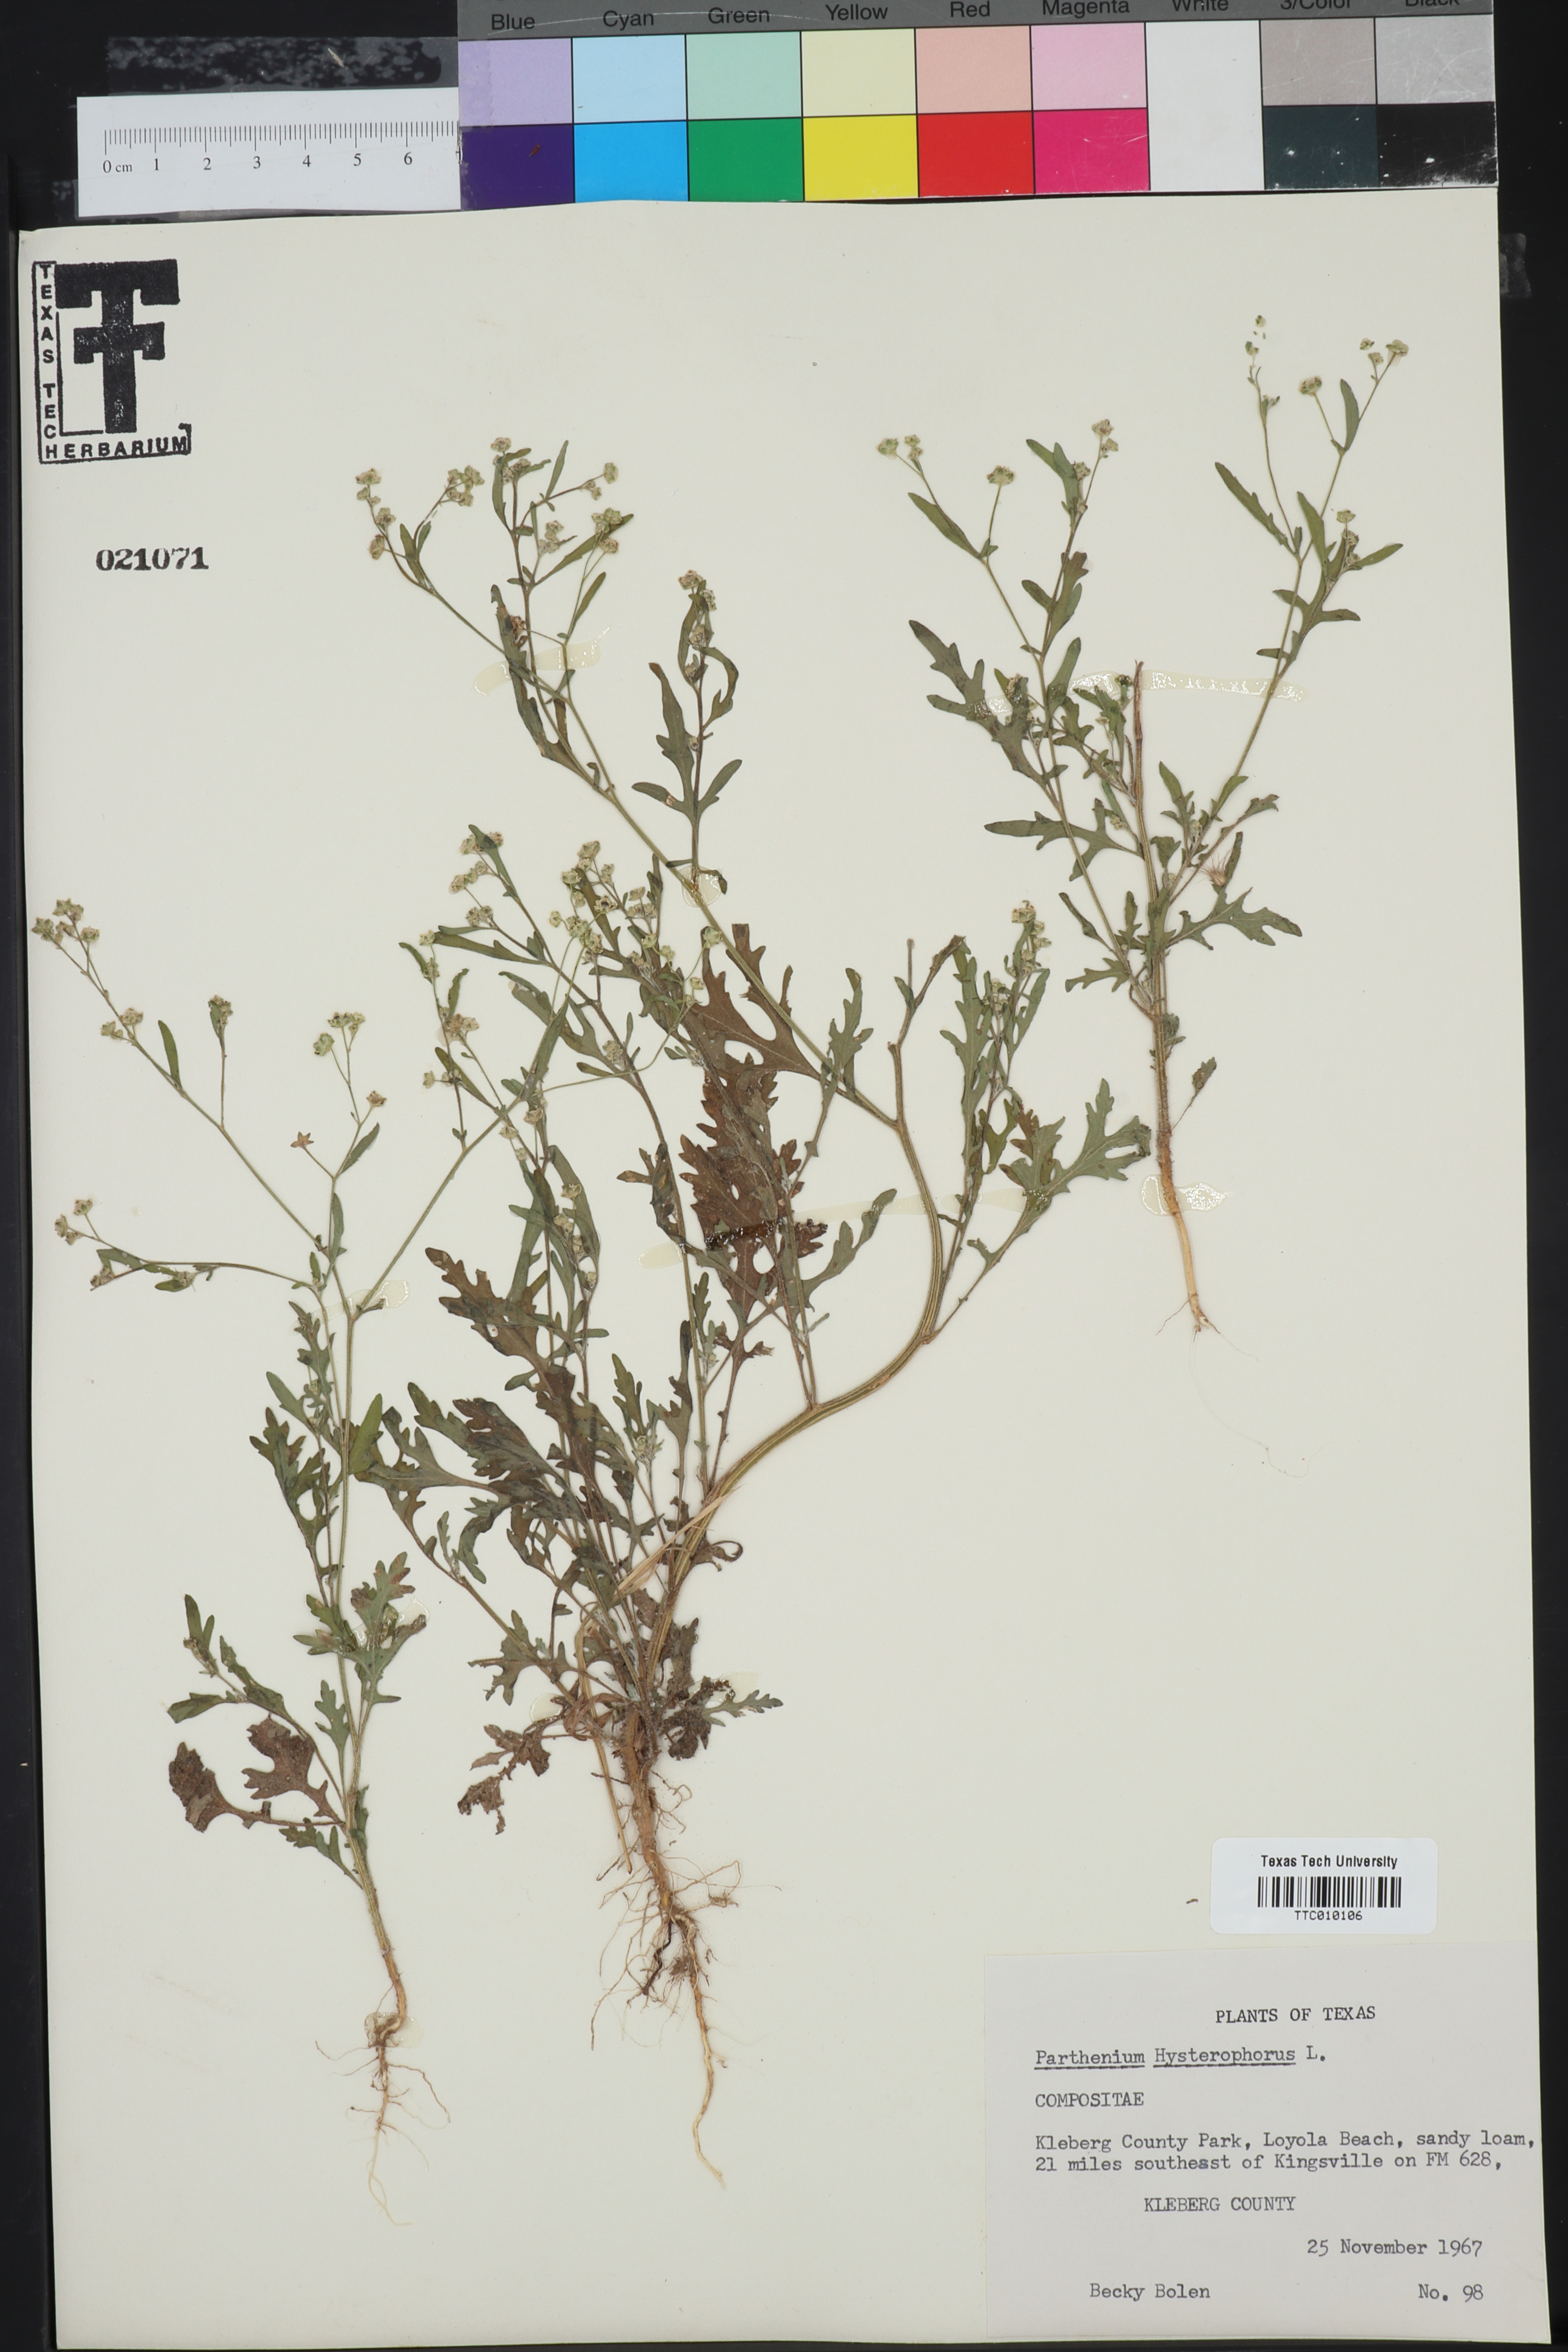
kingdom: Plantae
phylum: Tracheophyta
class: Magnoliopsida
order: Asterales
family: Asteraceae
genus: Parthenium
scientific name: Parthenium hysterophorus
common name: Santa maria feverfew
